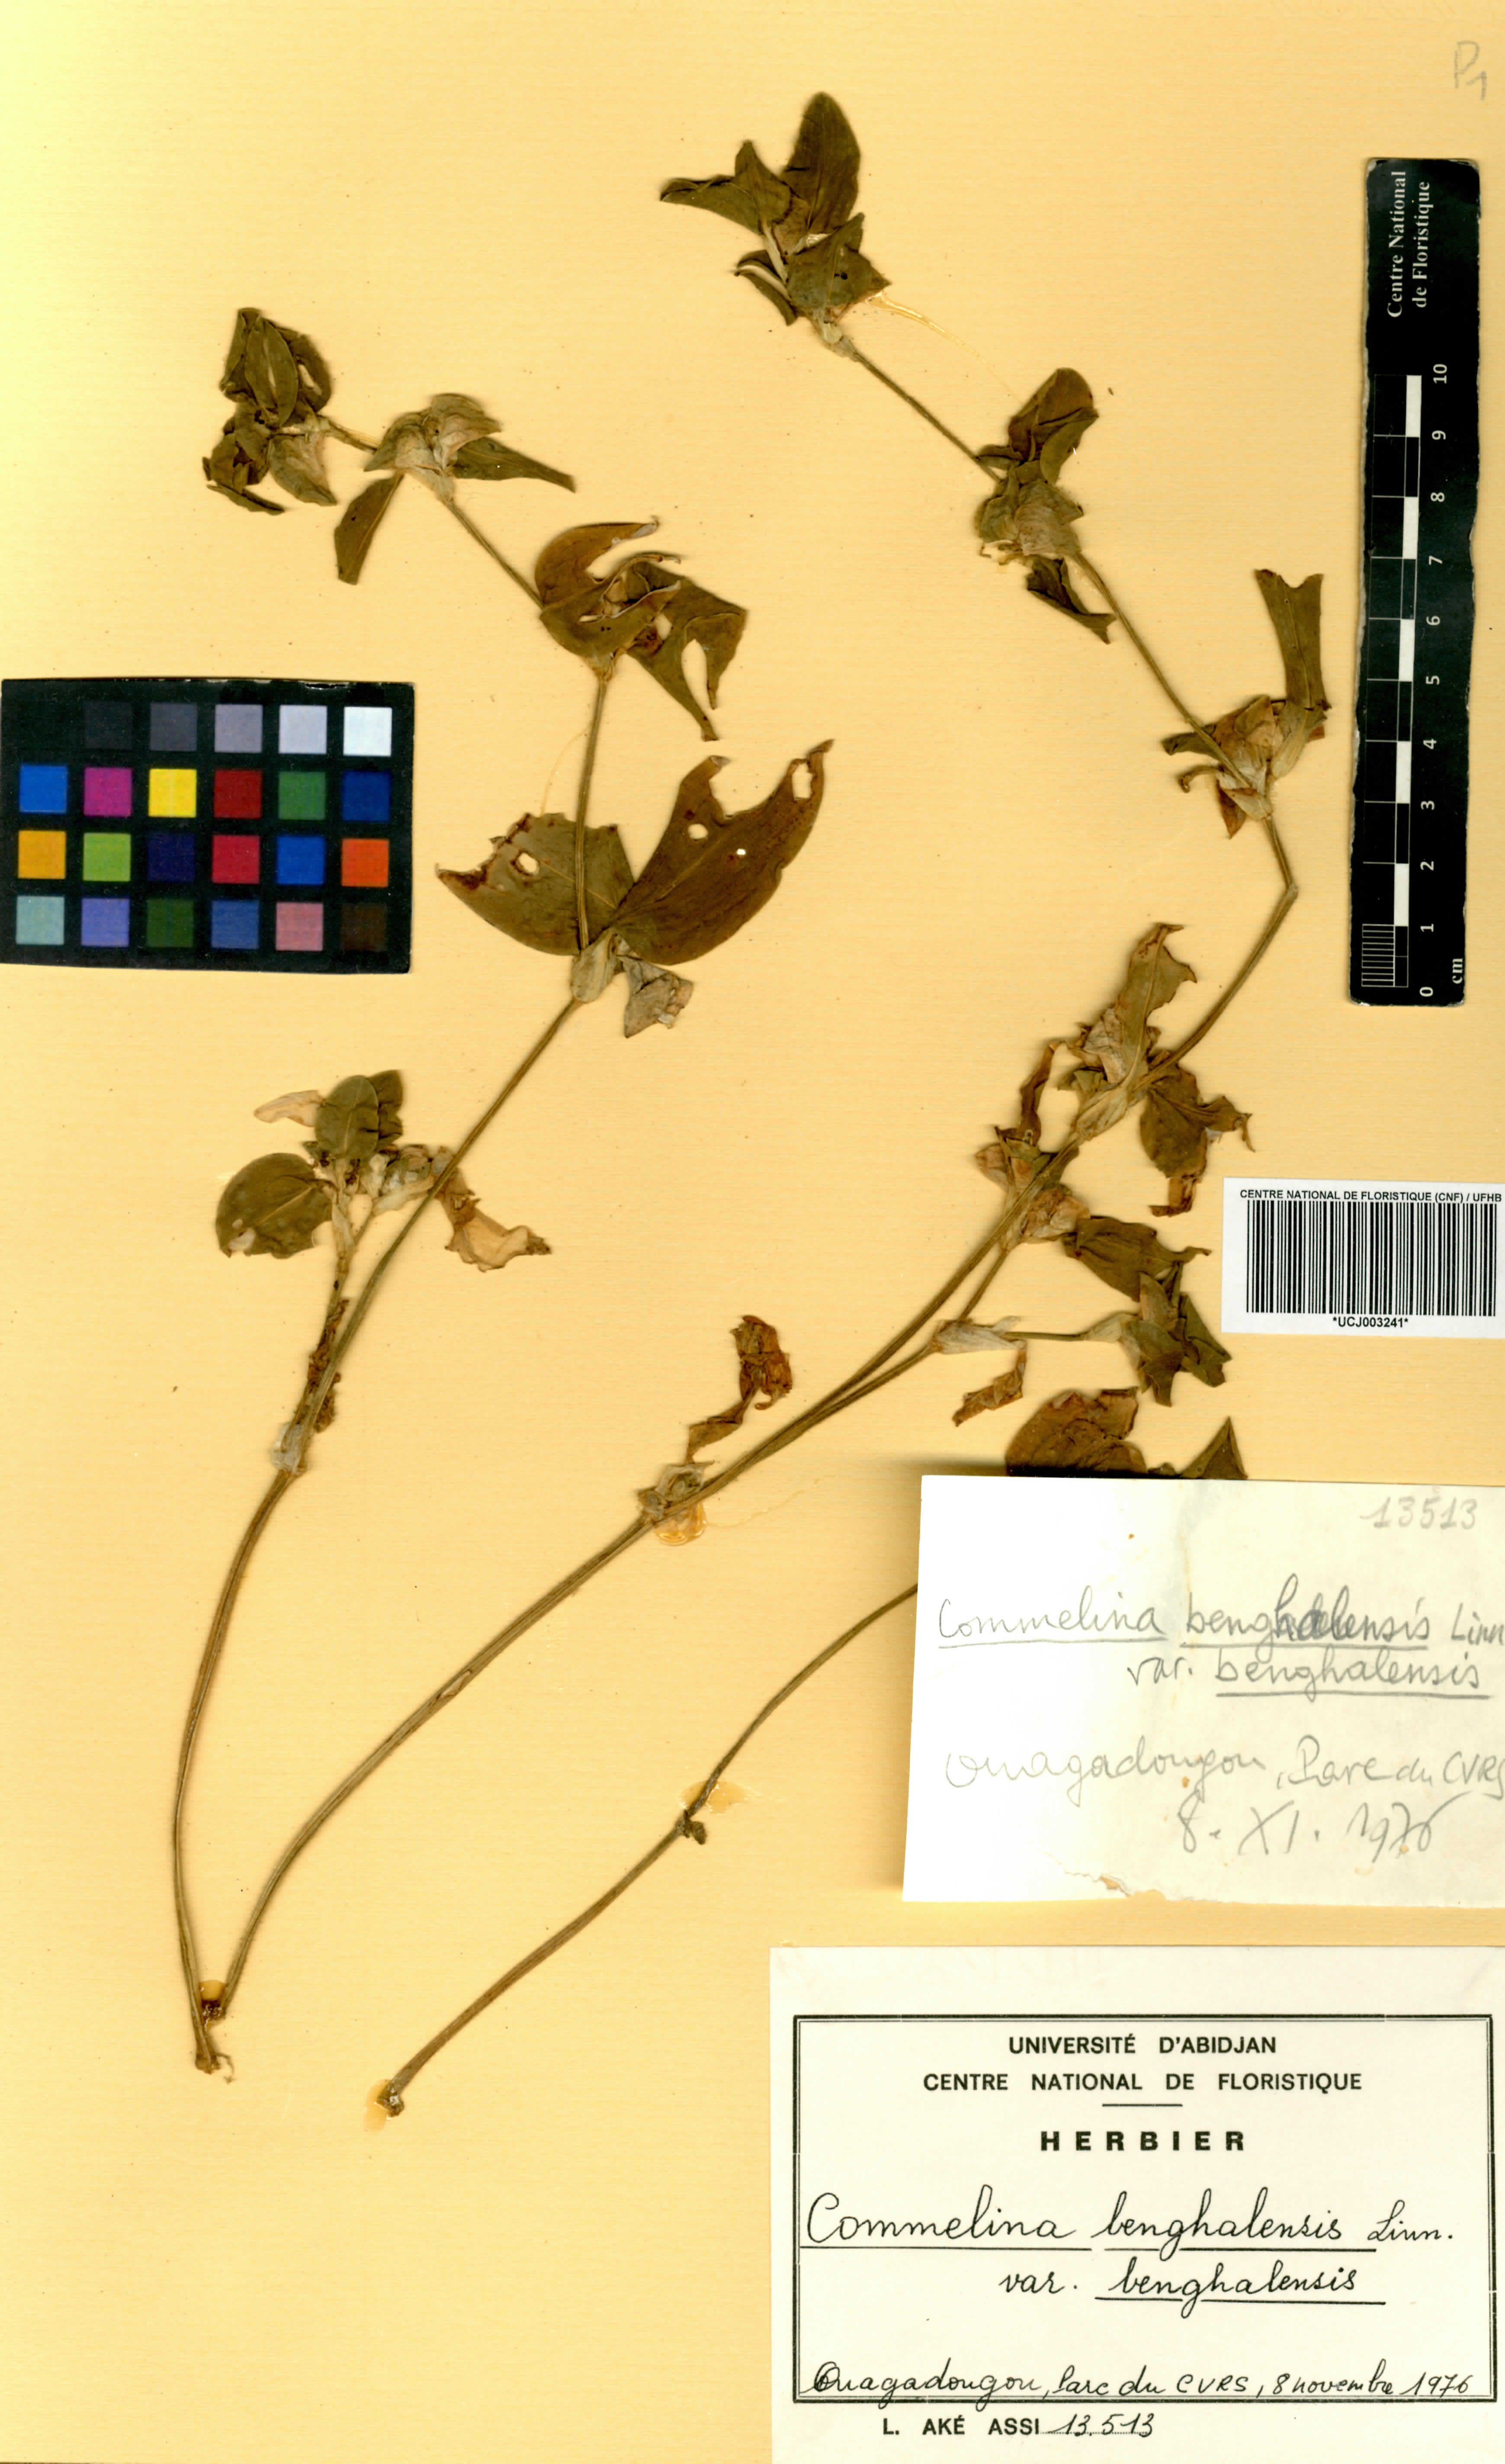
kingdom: Plantae
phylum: Tracheophyta
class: Liliopsida
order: Commelinales
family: Commelinaceae
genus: Commelina
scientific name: Commelina benghalensis
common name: Jio
